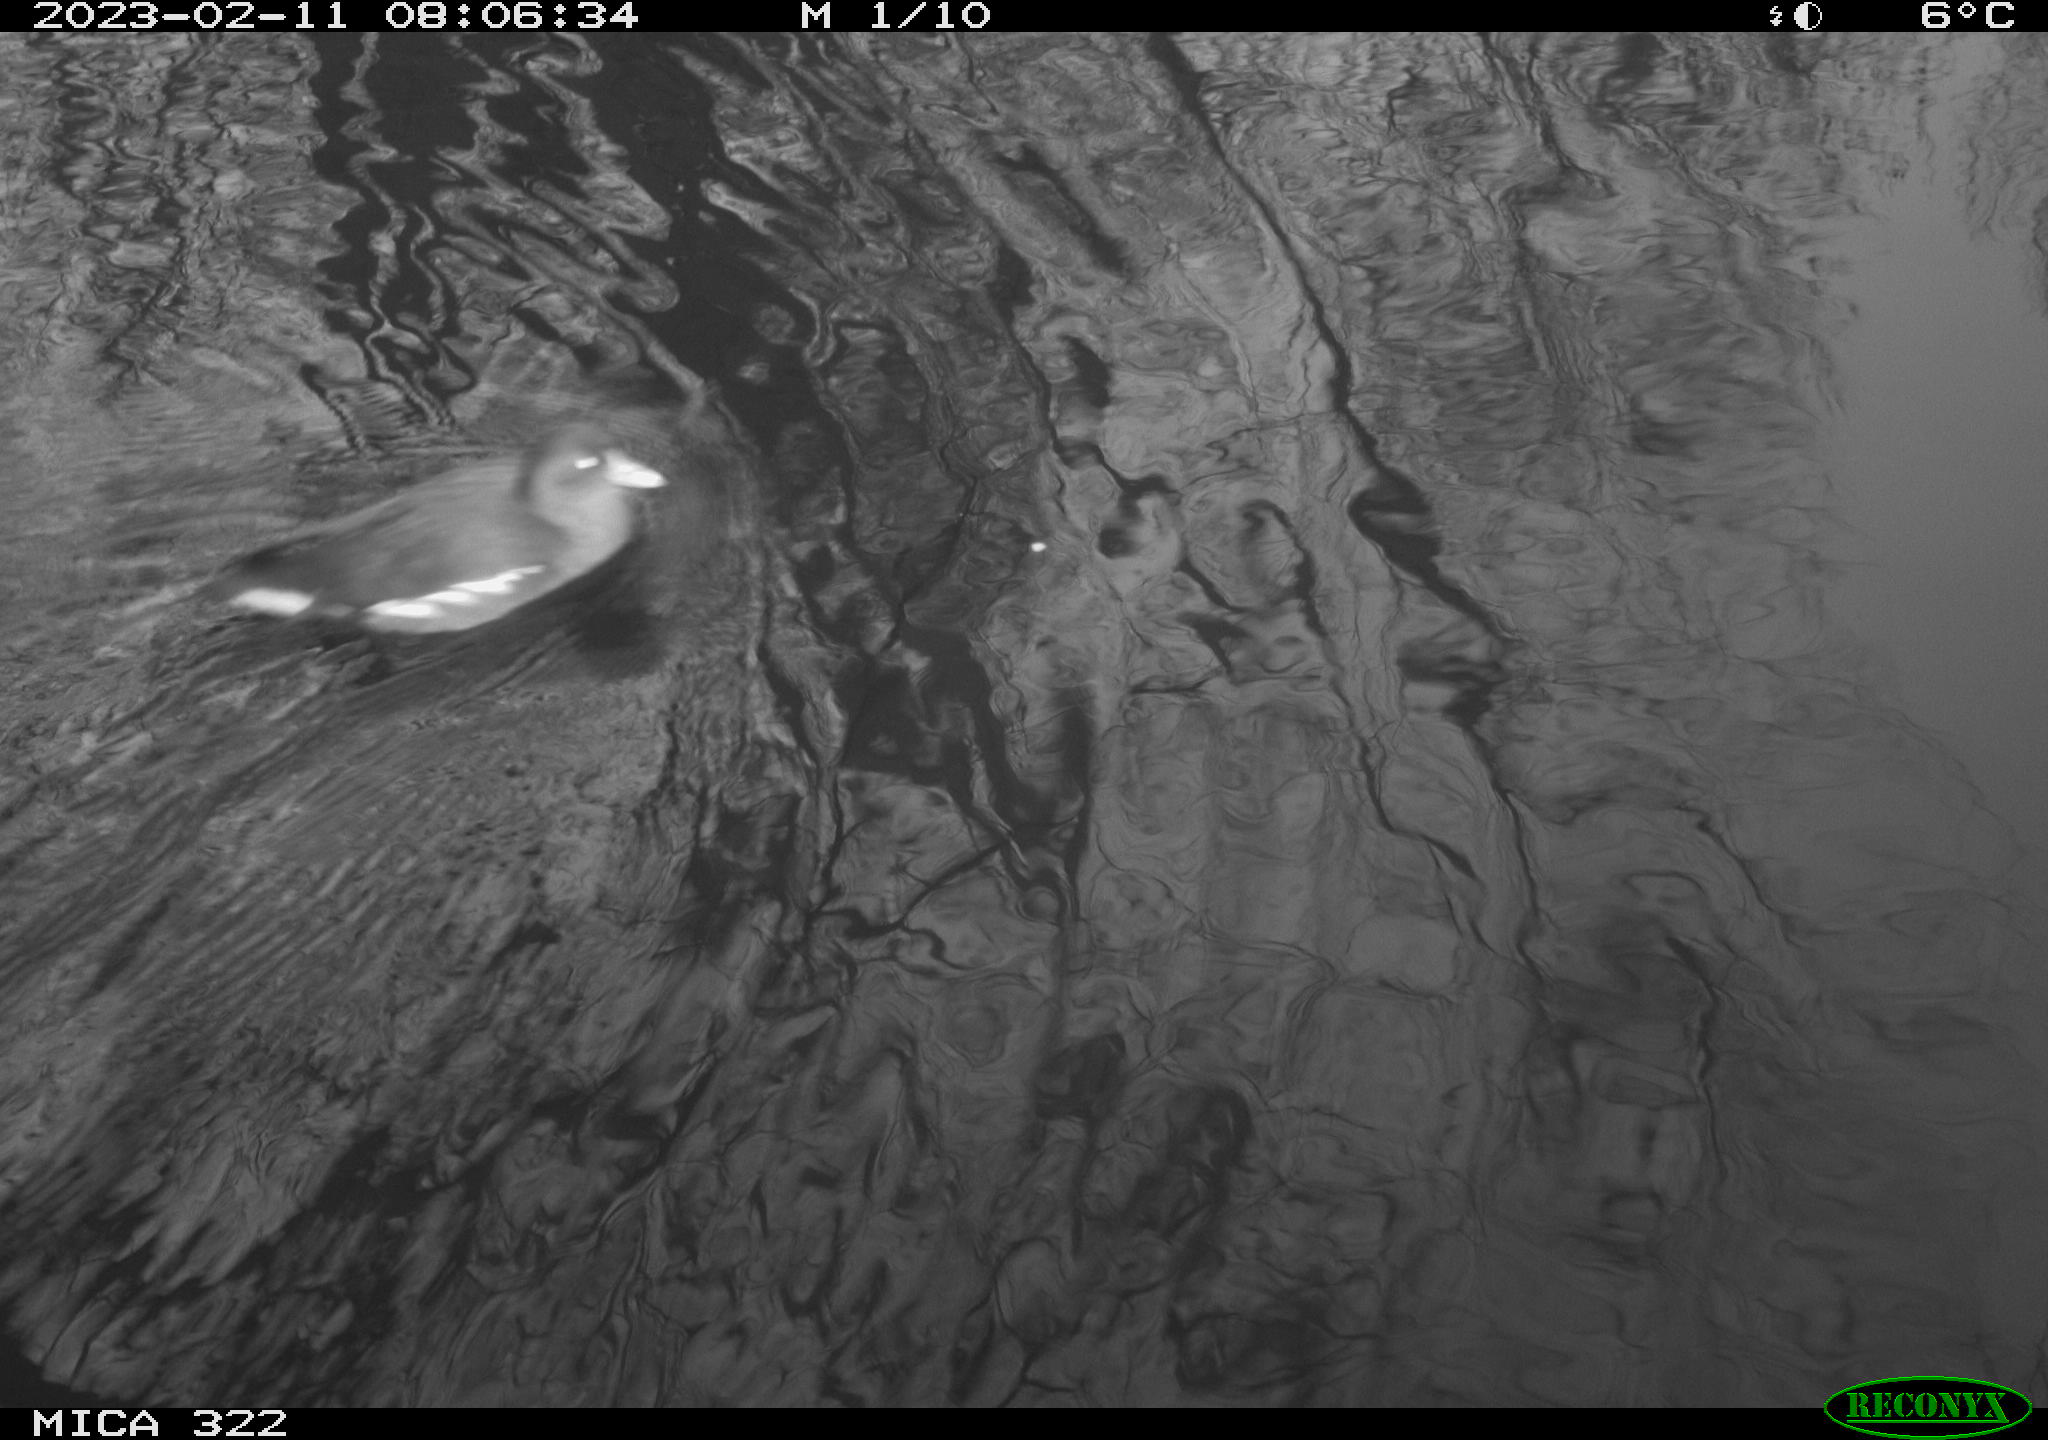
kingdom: Animalia
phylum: Chordata
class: Aves
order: Gruiformes
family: Rallidae
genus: Gallinula
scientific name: Gallinula chloropus
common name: Common moorhen
